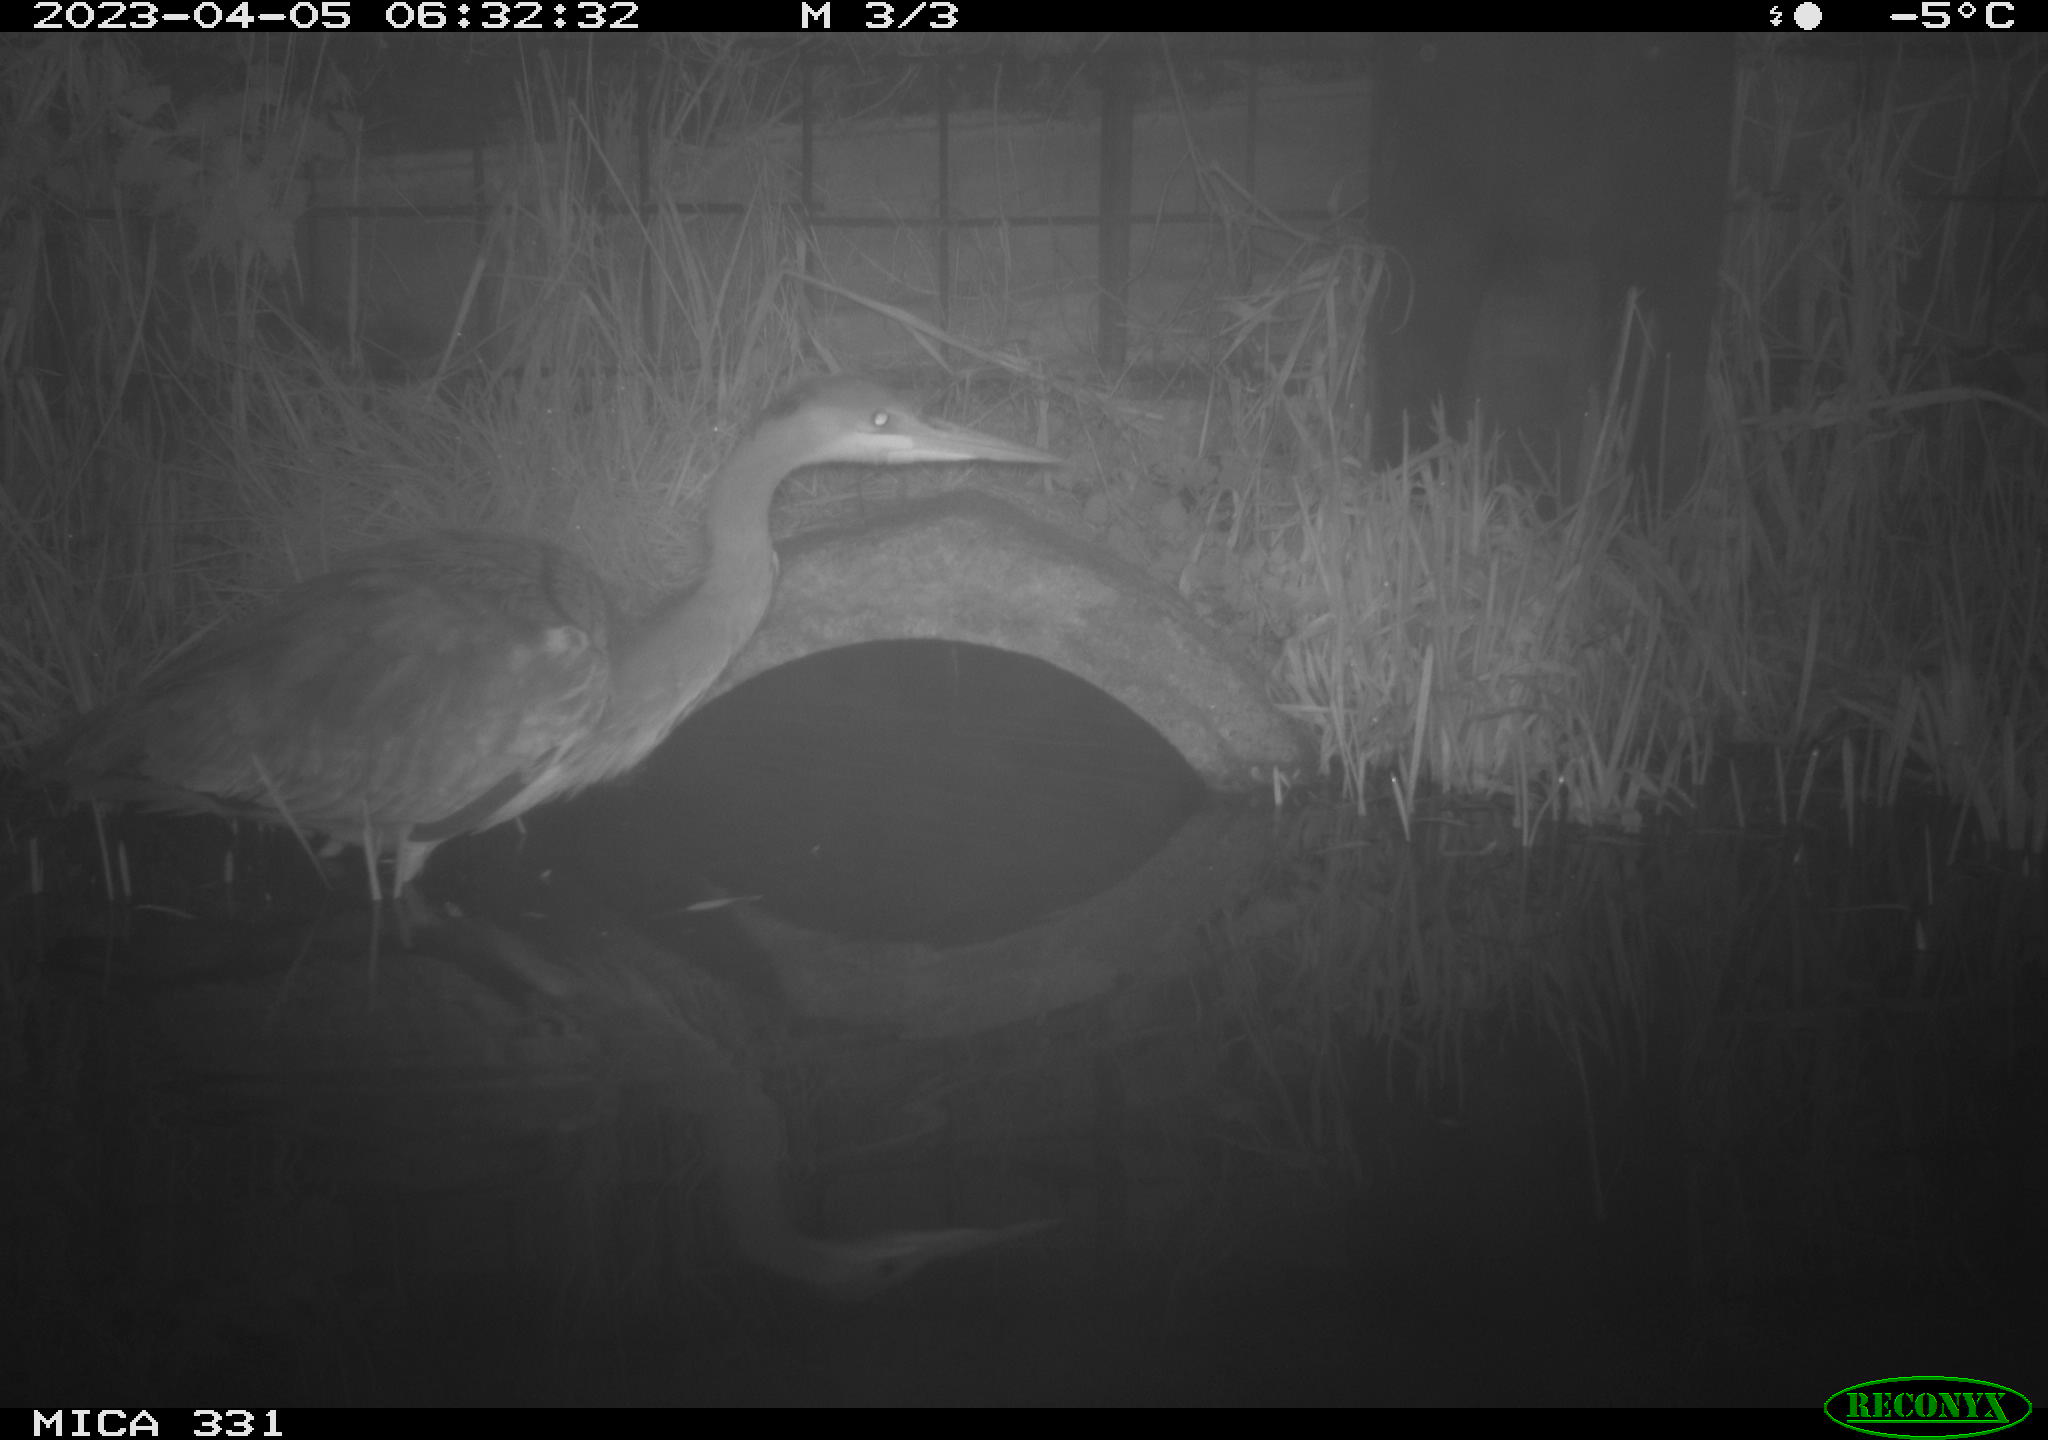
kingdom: Animalia
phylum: Chordata
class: Aves
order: Pelecaniformes
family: Ardeidae
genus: Ardea
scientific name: Ardea
